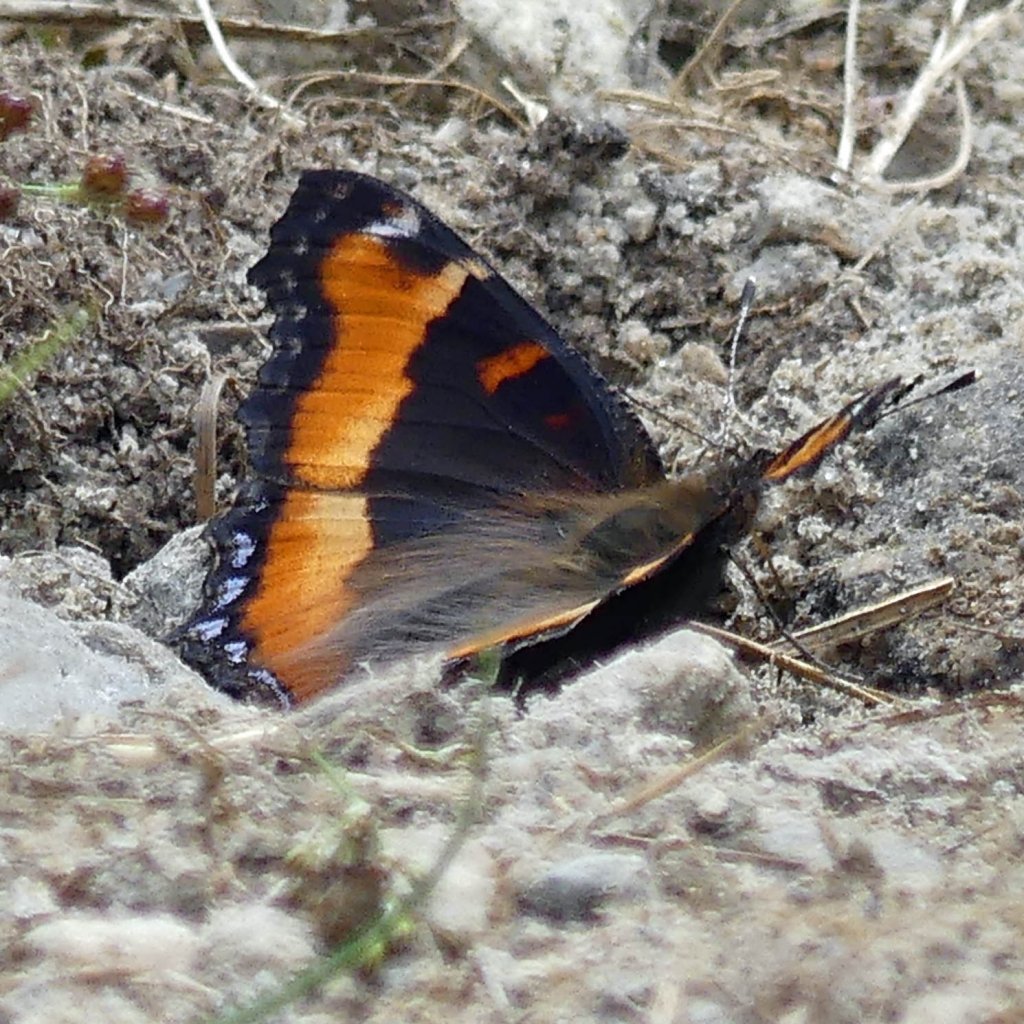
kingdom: Animalia
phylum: Arthropoda
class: Insecta
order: Lepidoptera
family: Nymphalidae
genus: Aglais
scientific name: Aglais milberti
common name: Milbert's Tortoiseshell
